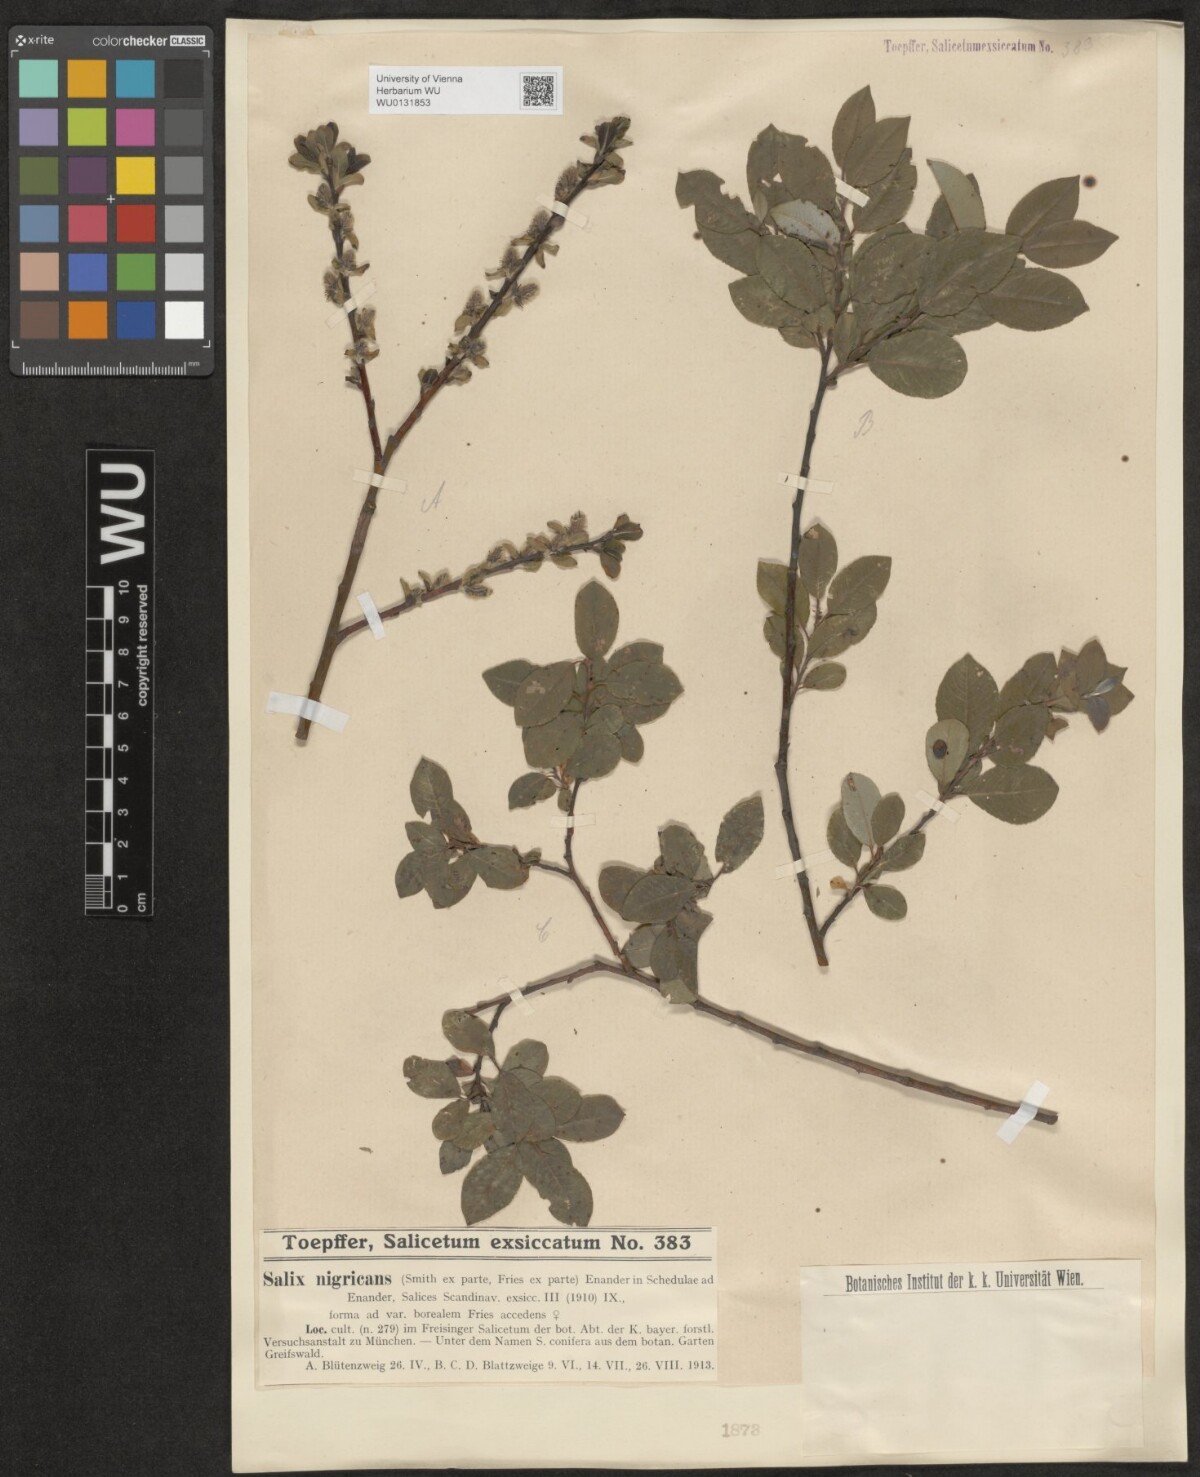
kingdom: Plantae
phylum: Tracheophyta
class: Magnoliopsida
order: Malpighiales
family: Salicaceae
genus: Salix
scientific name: Salix myrsinifolia
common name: Dark-leaved willow
